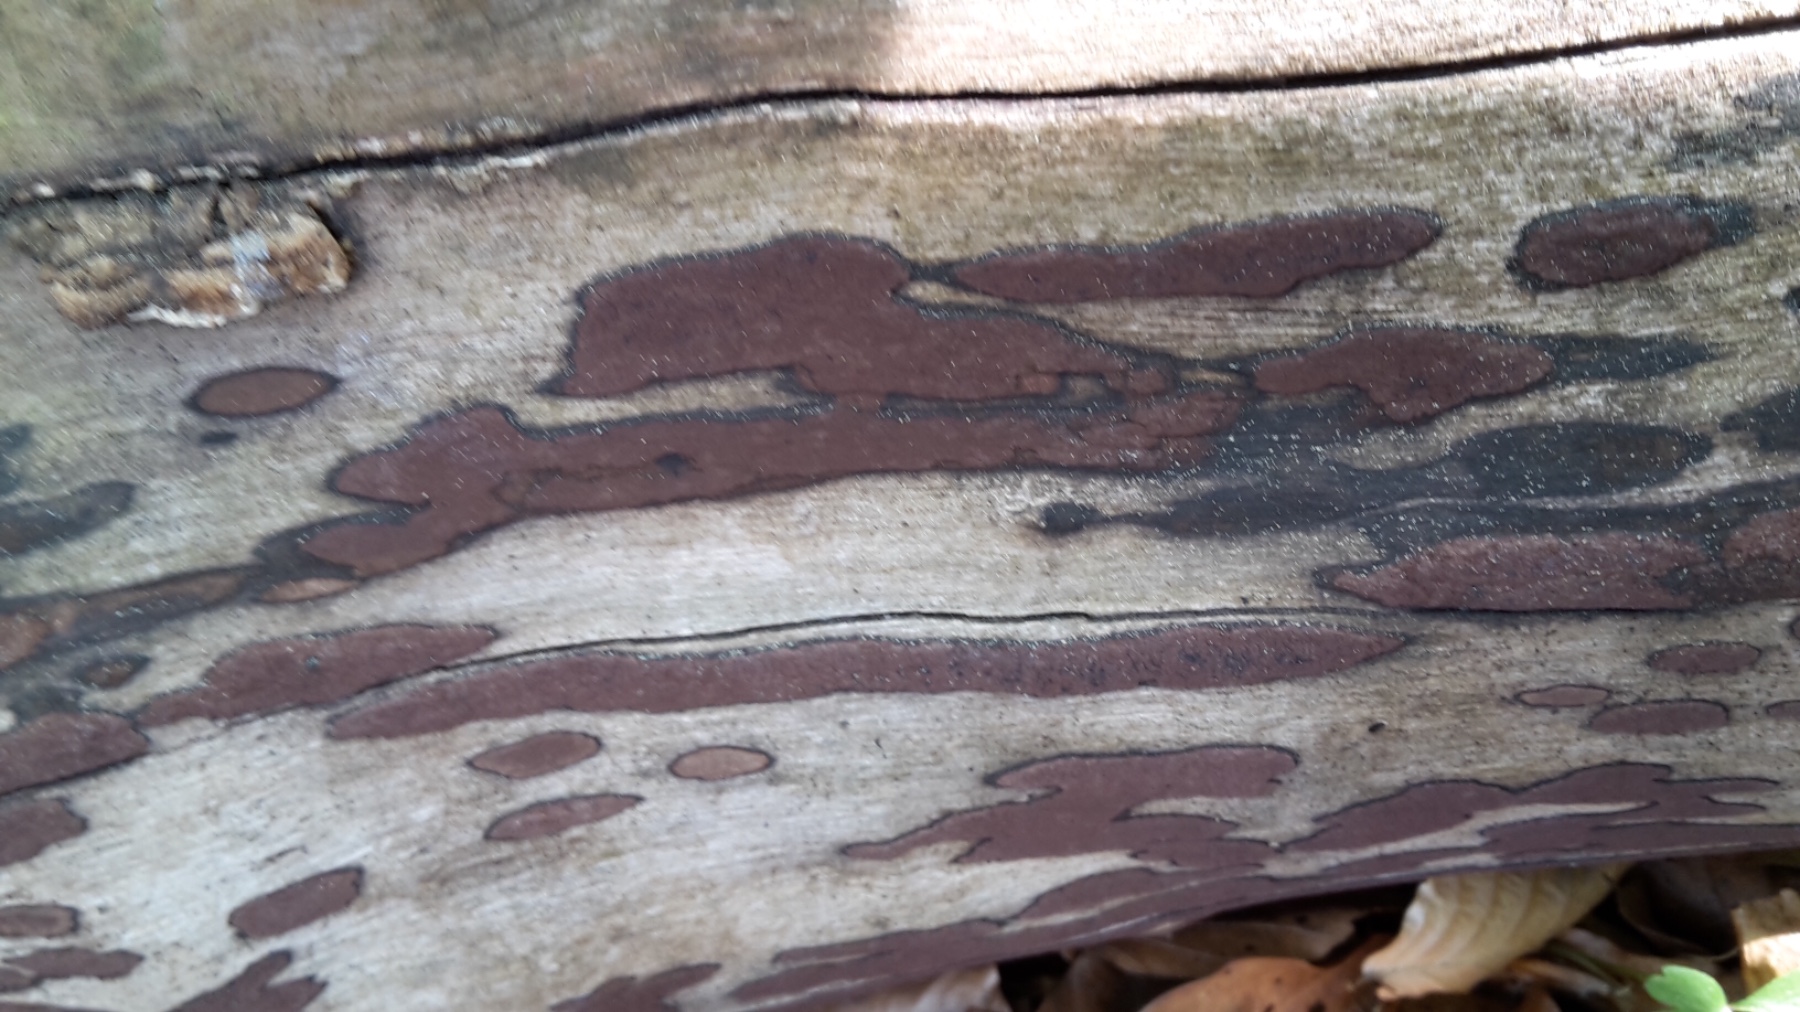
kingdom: Fungi
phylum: Ascomycota
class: Sordariomycetes
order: Xylariales
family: Hypoxylaceae
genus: Hypoxylon
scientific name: Hypoxylon petriniae
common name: nedsænket kulbær
